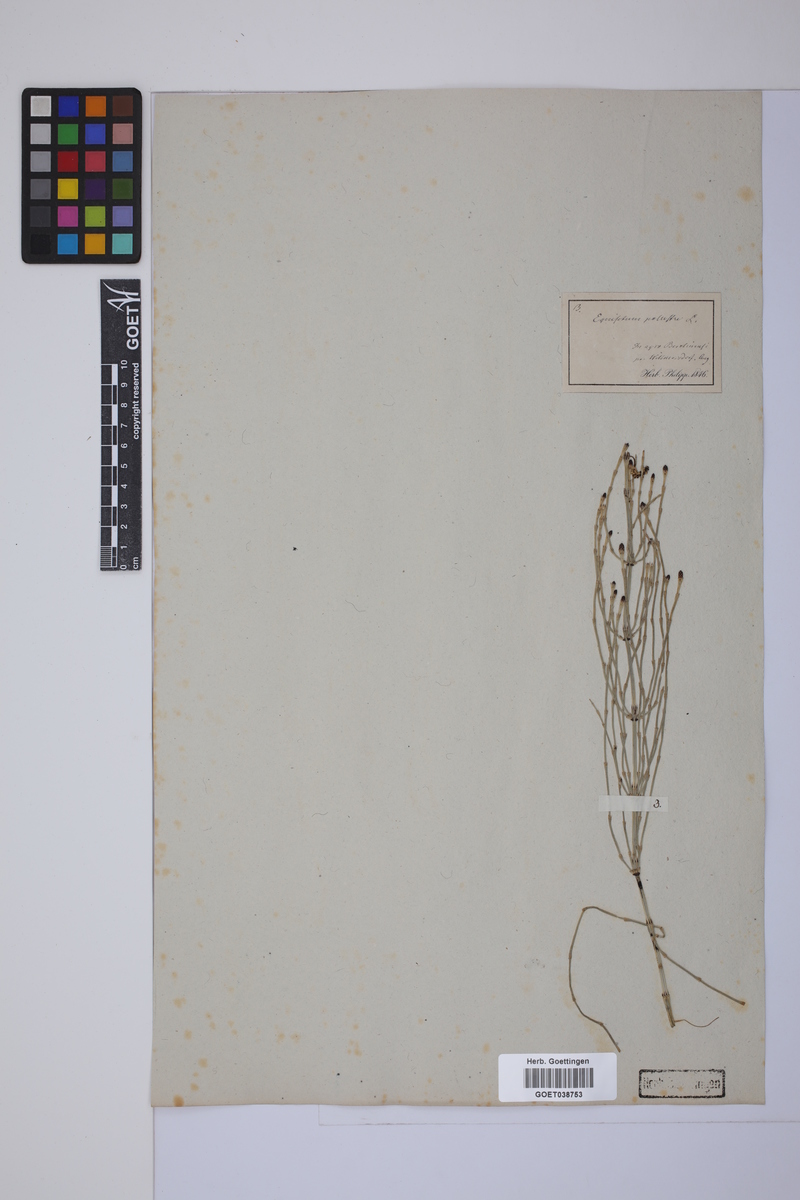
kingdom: Plantae
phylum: Tracheophyta
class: Polypodiopsida
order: Equisetales
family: Equisetaceae
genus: Equisetum
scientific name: Equisetum palustre
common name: Marsh horsetail
